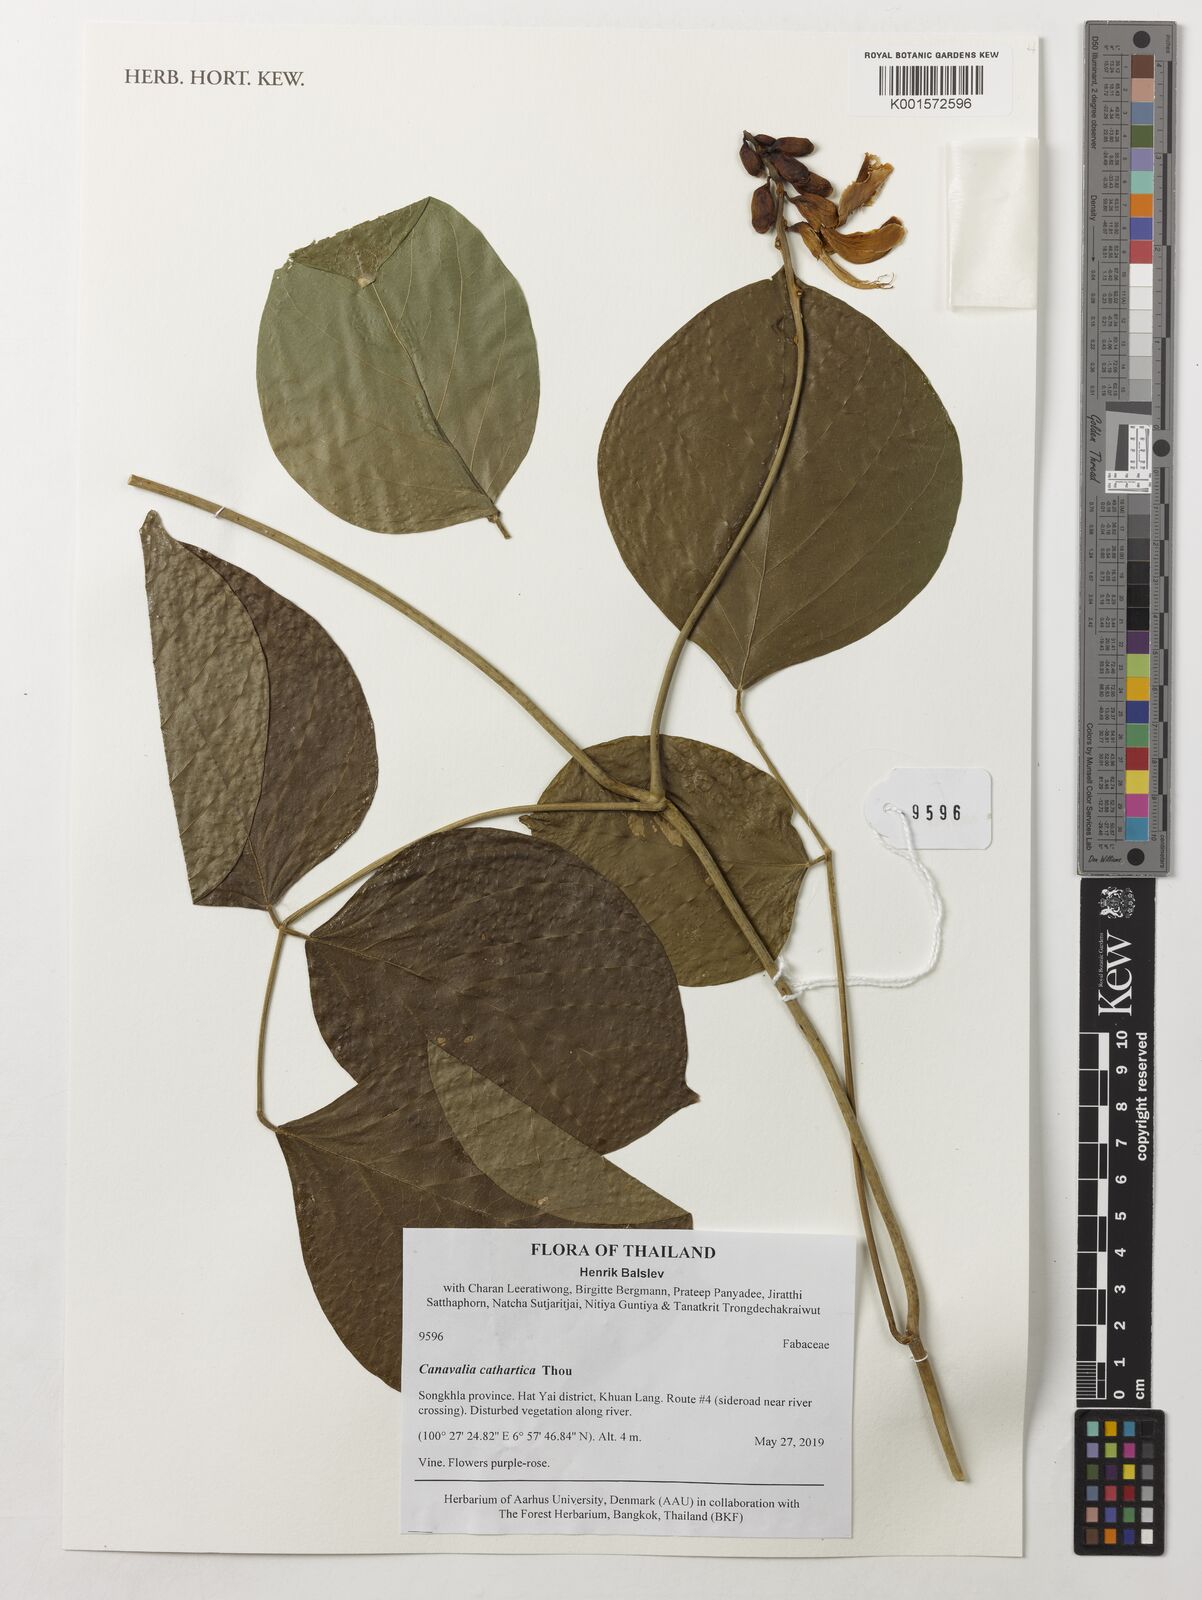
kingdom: Plantae
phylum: Tracheophyta
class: Magnoliopsida
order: Fabales
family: Fabaceae
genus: Canavalia
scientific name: Canavalia cathartica
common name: Maunaloa
